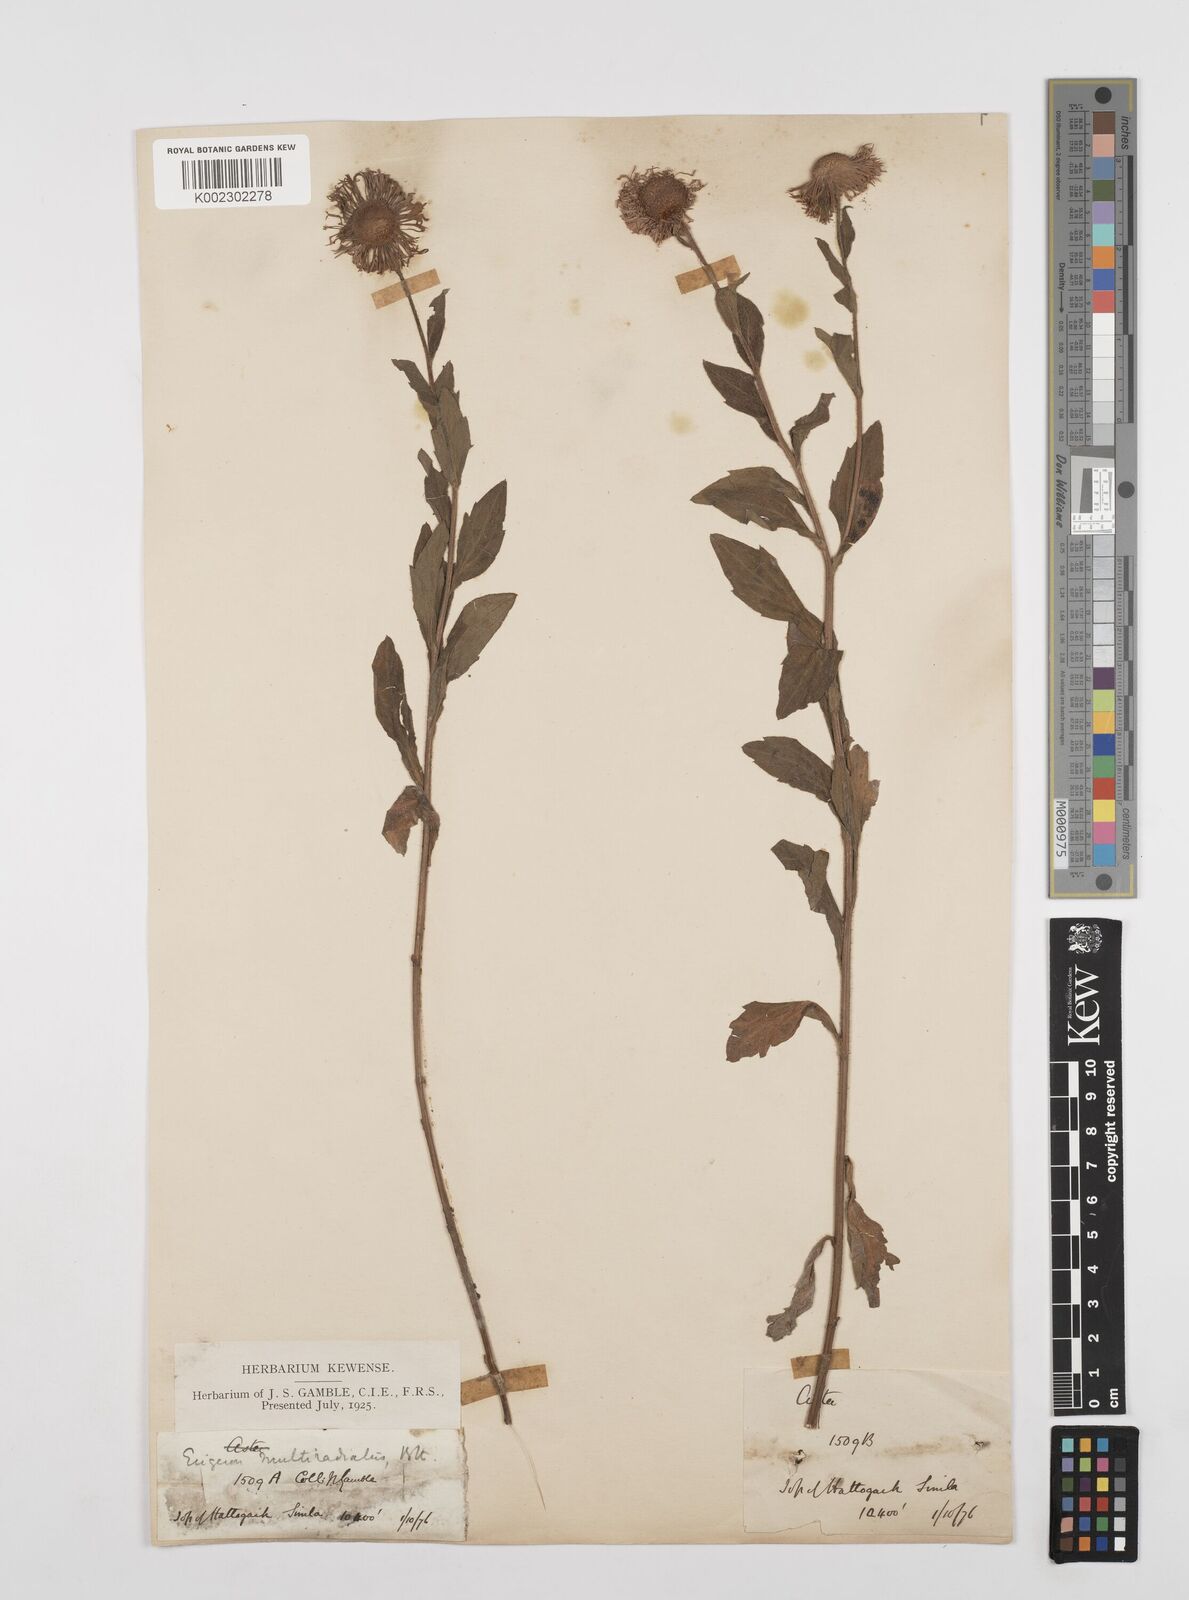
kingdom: Plantae
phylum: Tracheophyta
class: Magnoliopsida
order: Asterales
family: Asteraceae
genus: Erigeron
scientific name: Erigeron multiradiatus
